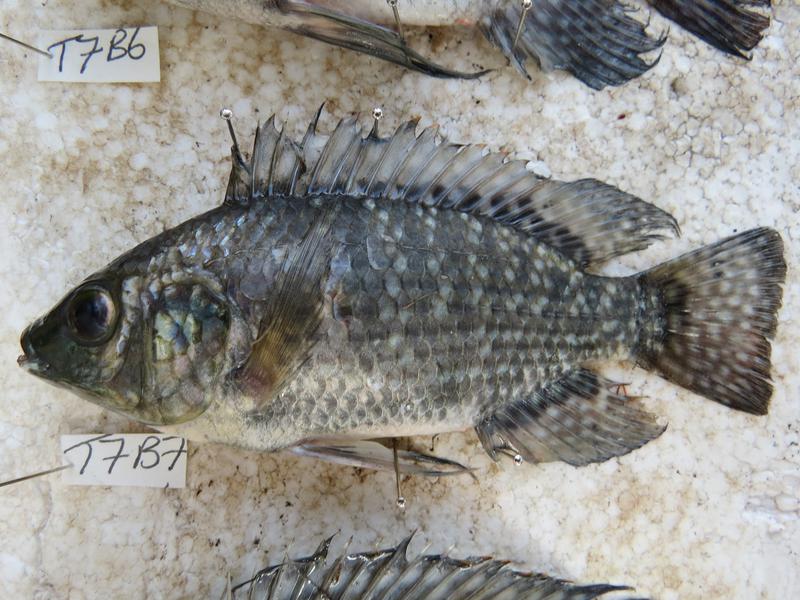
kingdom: Animalia
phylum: Chordata
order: Perciformes
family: Cichlidae
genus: Oreochromis
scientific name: Oreochromis leucostictus
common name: Blue spotted tilapia
